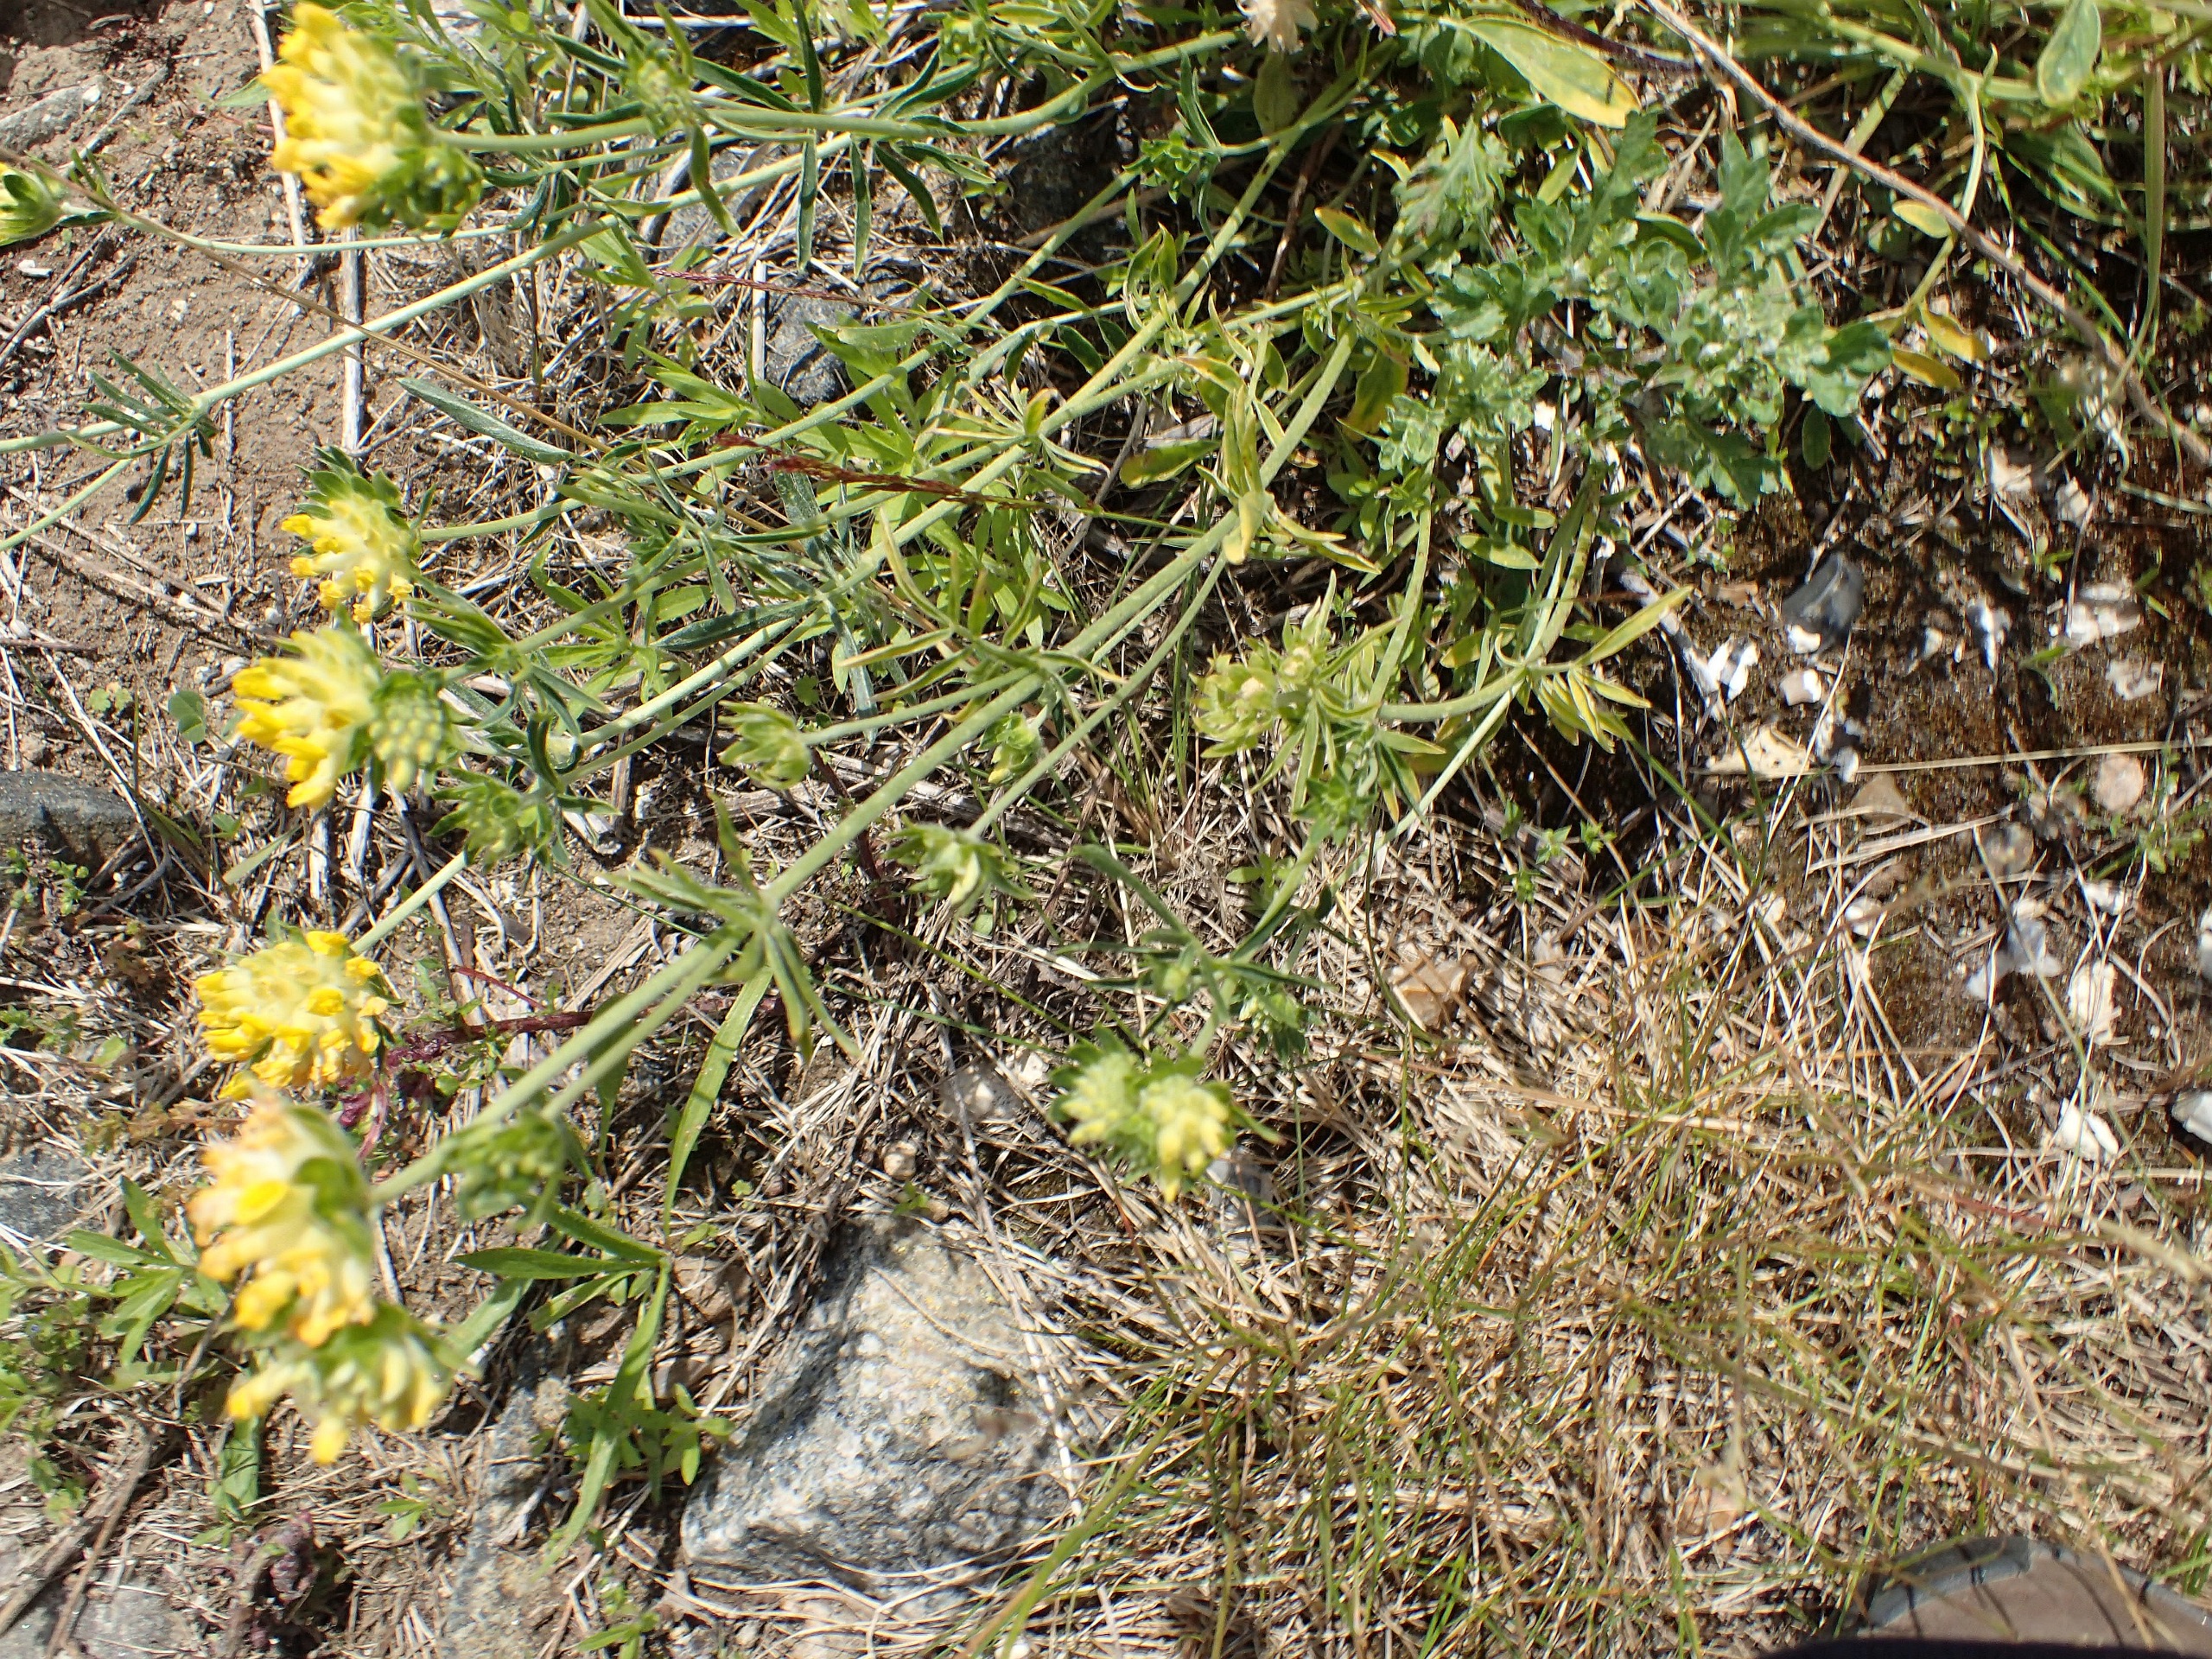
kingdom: Plantae
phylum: Tracheophyta
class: Magnoliopsida
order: Fabales
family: Fabaceae
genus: Anthyllis
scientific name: Anthyllis vulneraria
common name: Rundbælg
